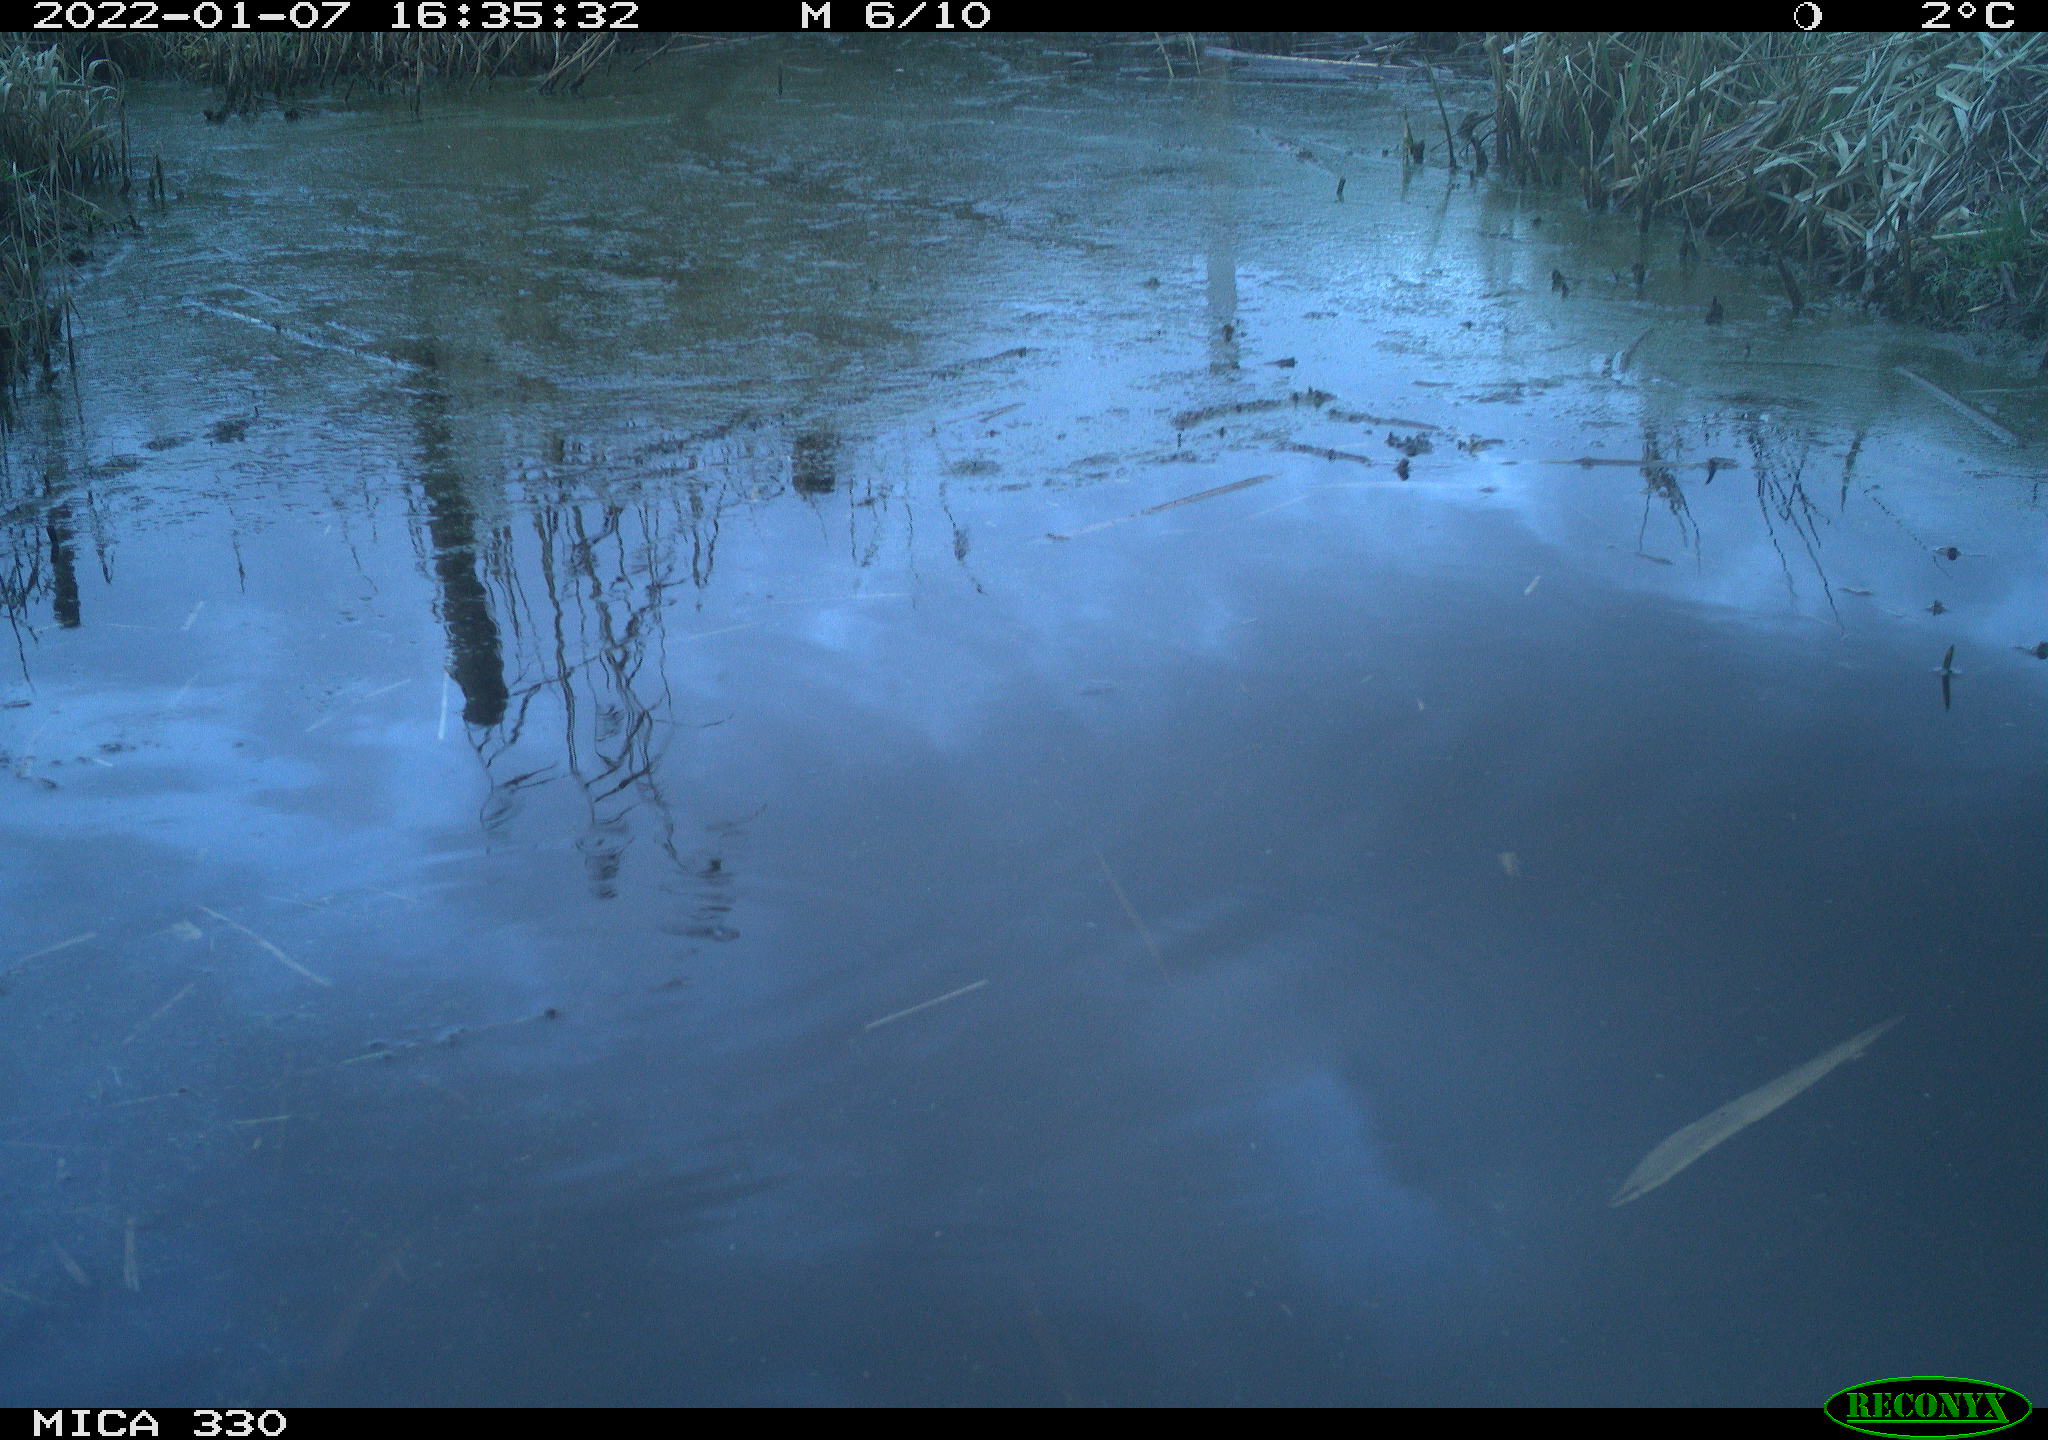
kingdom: Animalia
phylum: Chordata
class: Aves
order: Gruiformes
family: Rallidae
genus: Gallinula
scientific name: Gallinula chloropus
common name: Common moorhen
